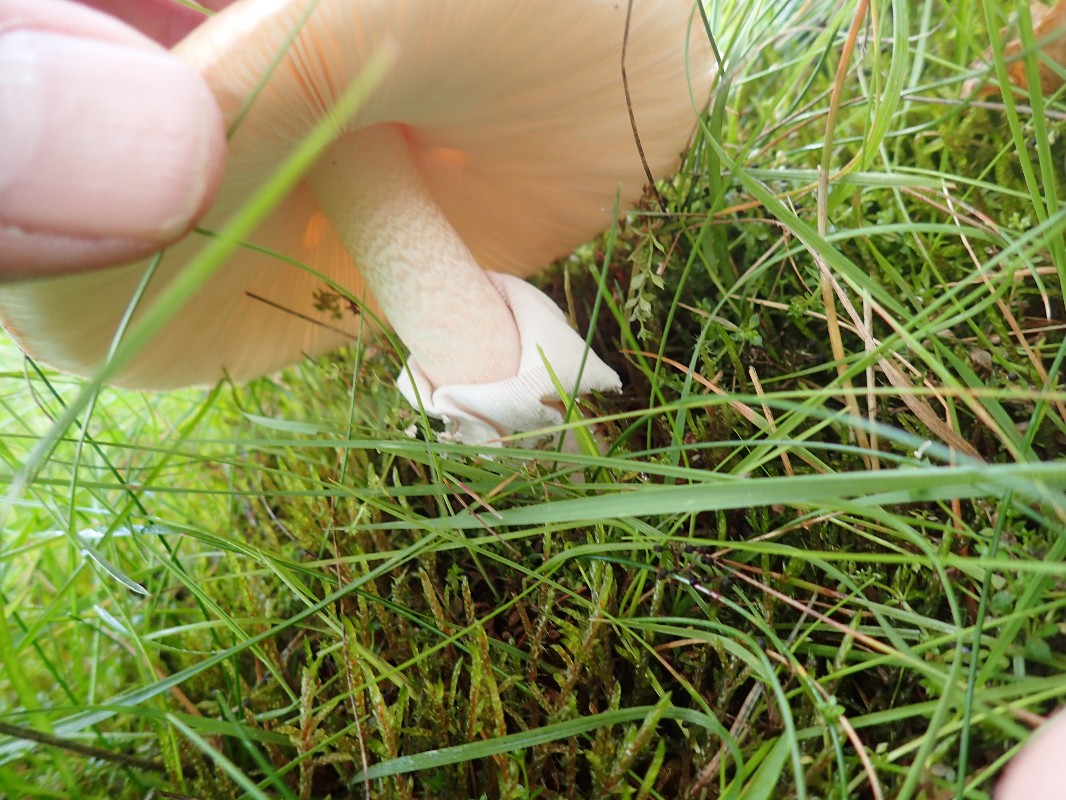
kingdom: Fungi
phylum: Basidiomycota
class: Agaricomycetes
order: Agaricales
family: Amanitaceae
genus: Amanita
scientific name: Amanita rubescens
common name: rødmende fluesvamp
